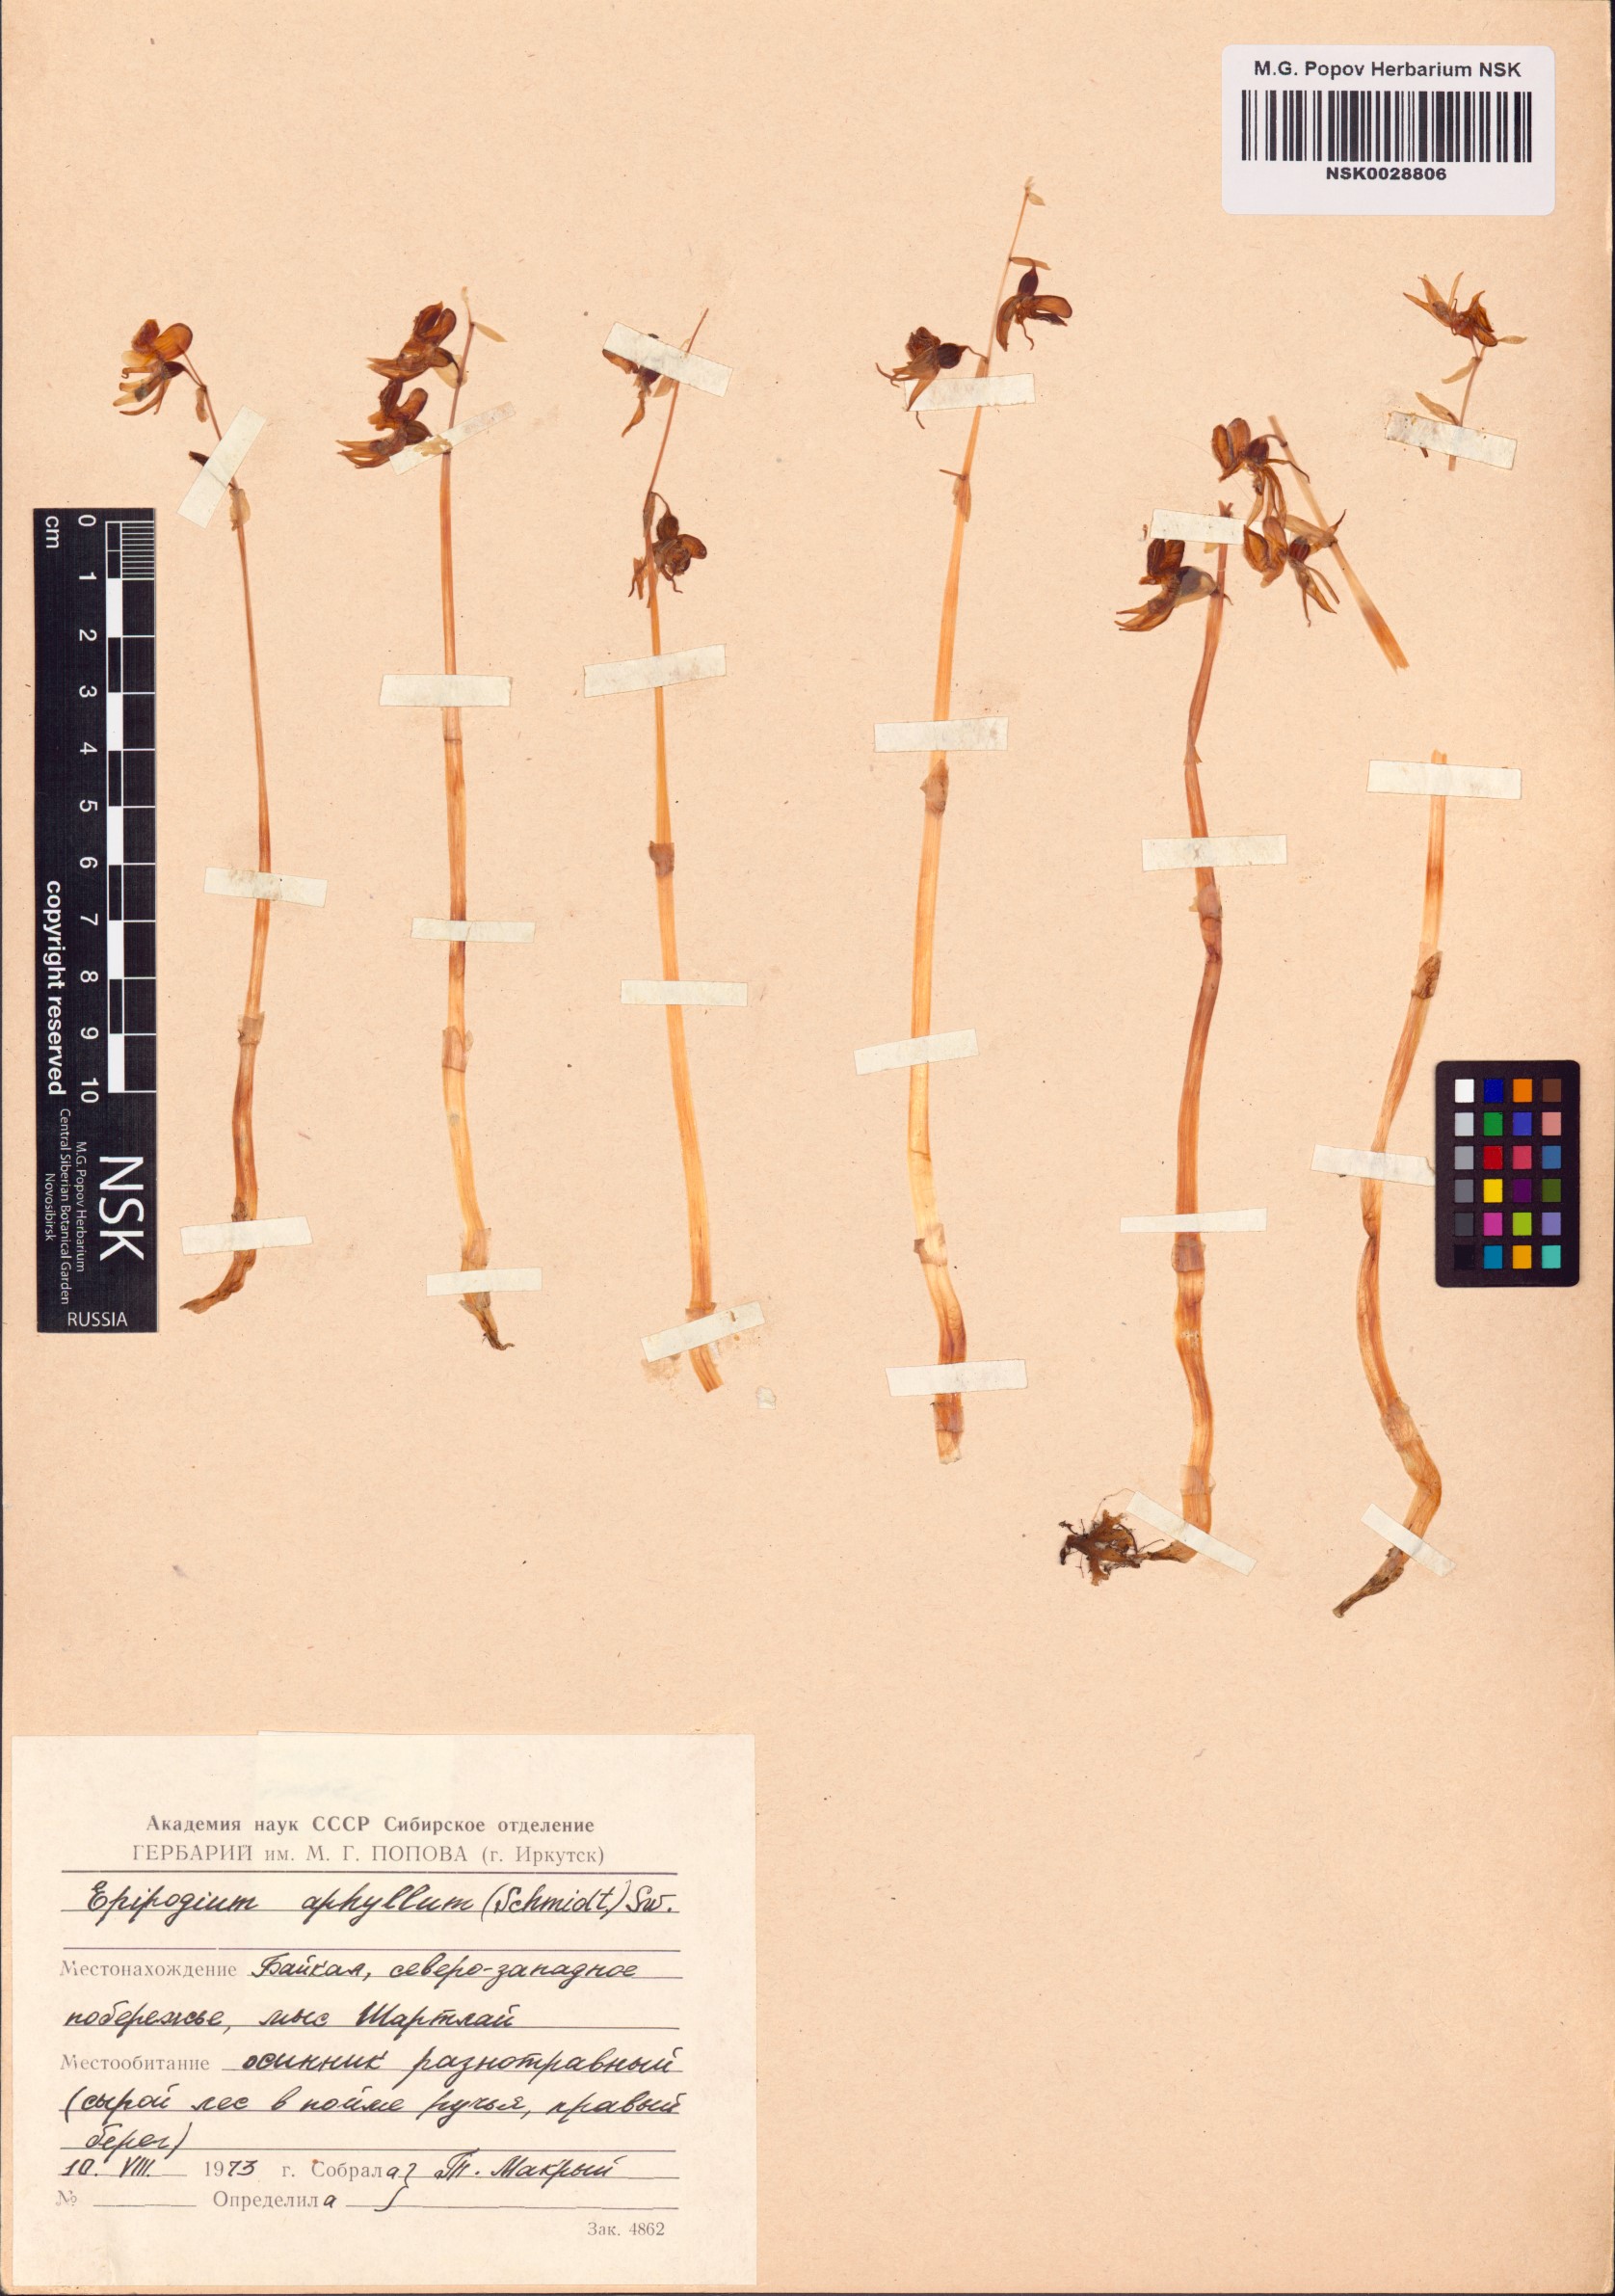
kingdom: Plantae
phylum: Tracheophyta
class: Liliopsida
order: Asparagales
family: Orchidaceae
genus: Epipogium
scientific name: Epipogium aphyllum
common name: Ghost orchid
